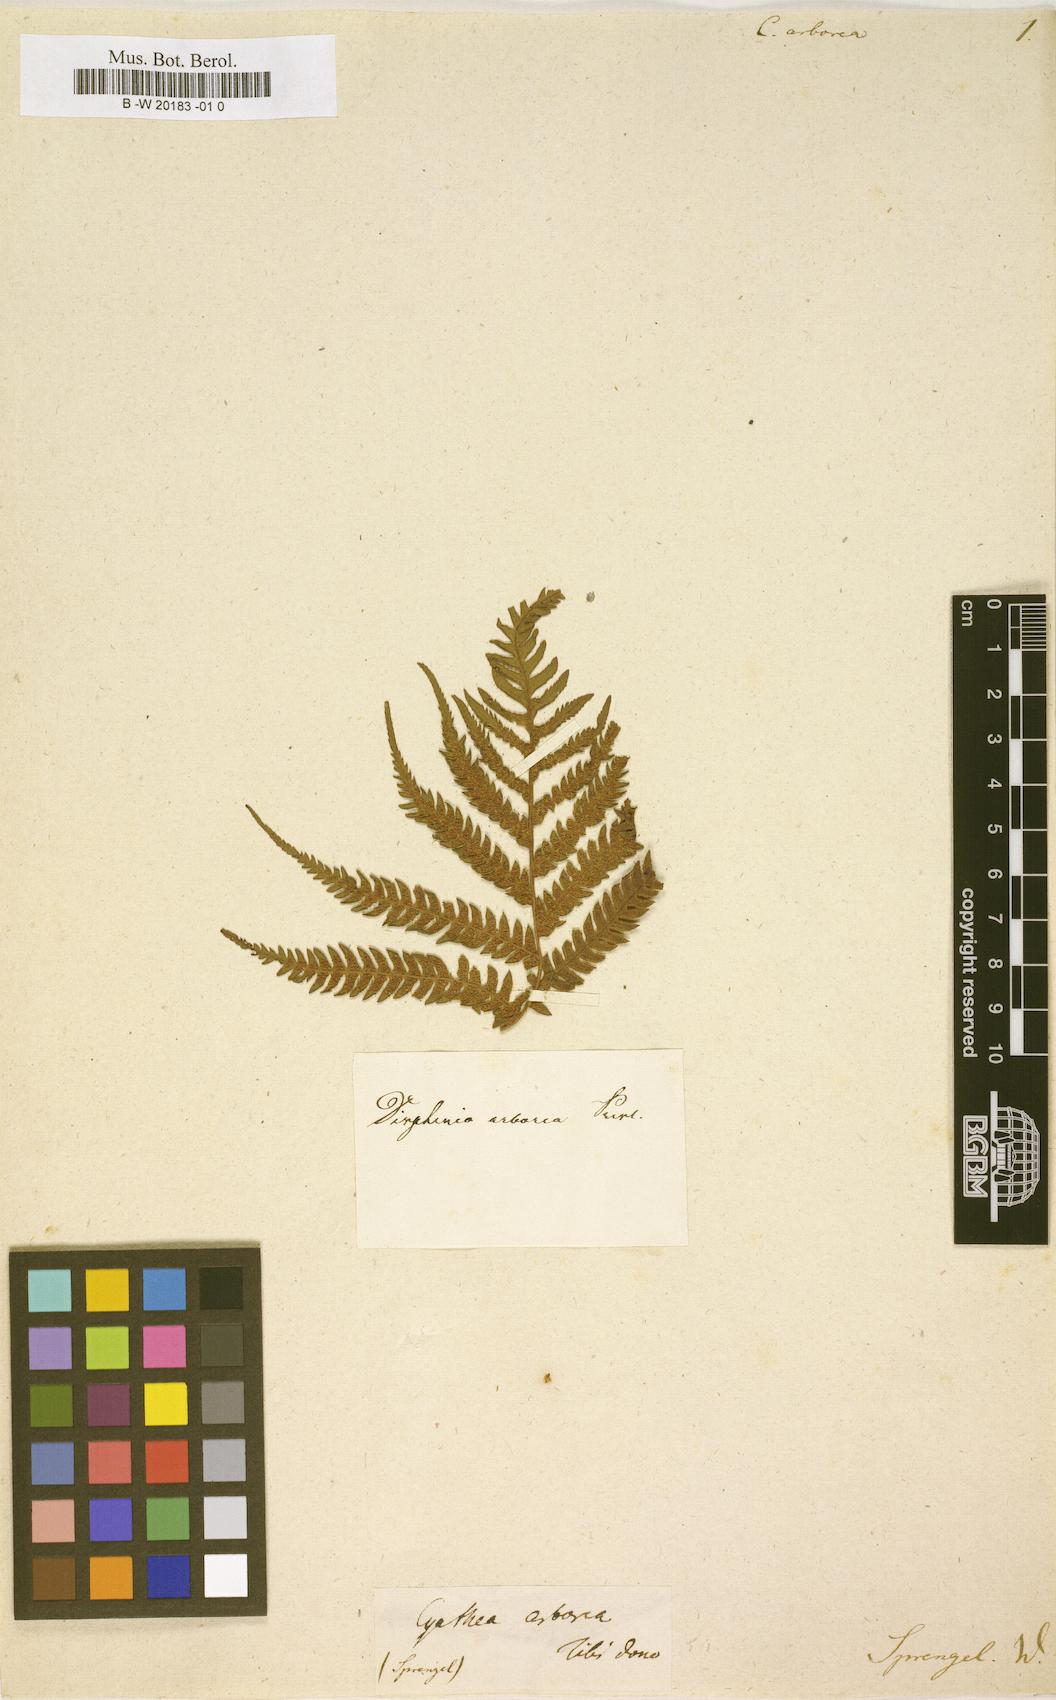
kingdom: Plantae
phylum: Tracheophyta
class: Polypodiopsida
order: Cyatheales
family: Cyatheaceae
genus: Cyathea
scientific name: Cyathea arborea
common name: West indian treefern
